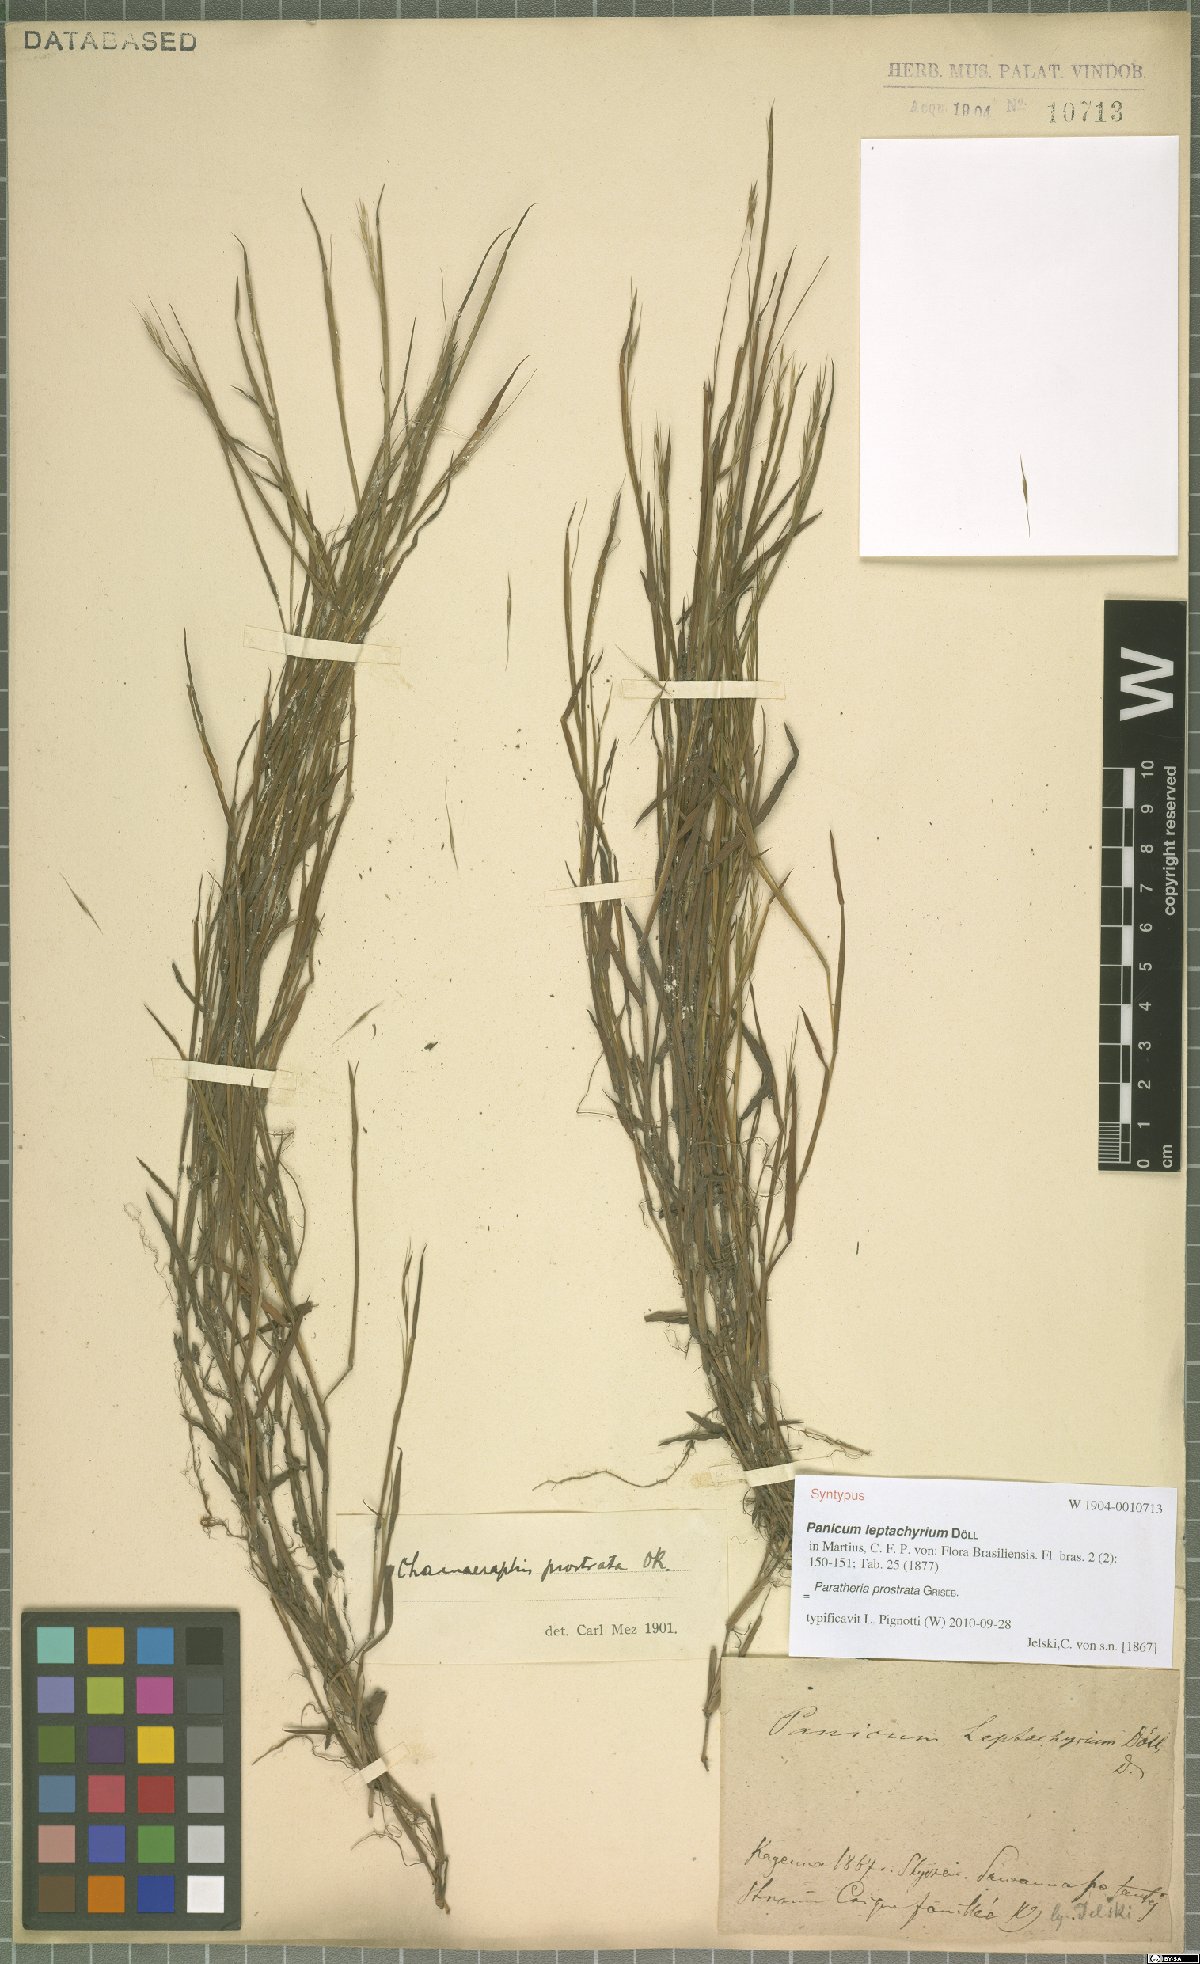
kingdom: Plantae
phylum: Tracheophyta
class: Liliopsida
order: Poales
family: Poaceae
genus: Paratheria
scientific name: Paratheria prostrata
